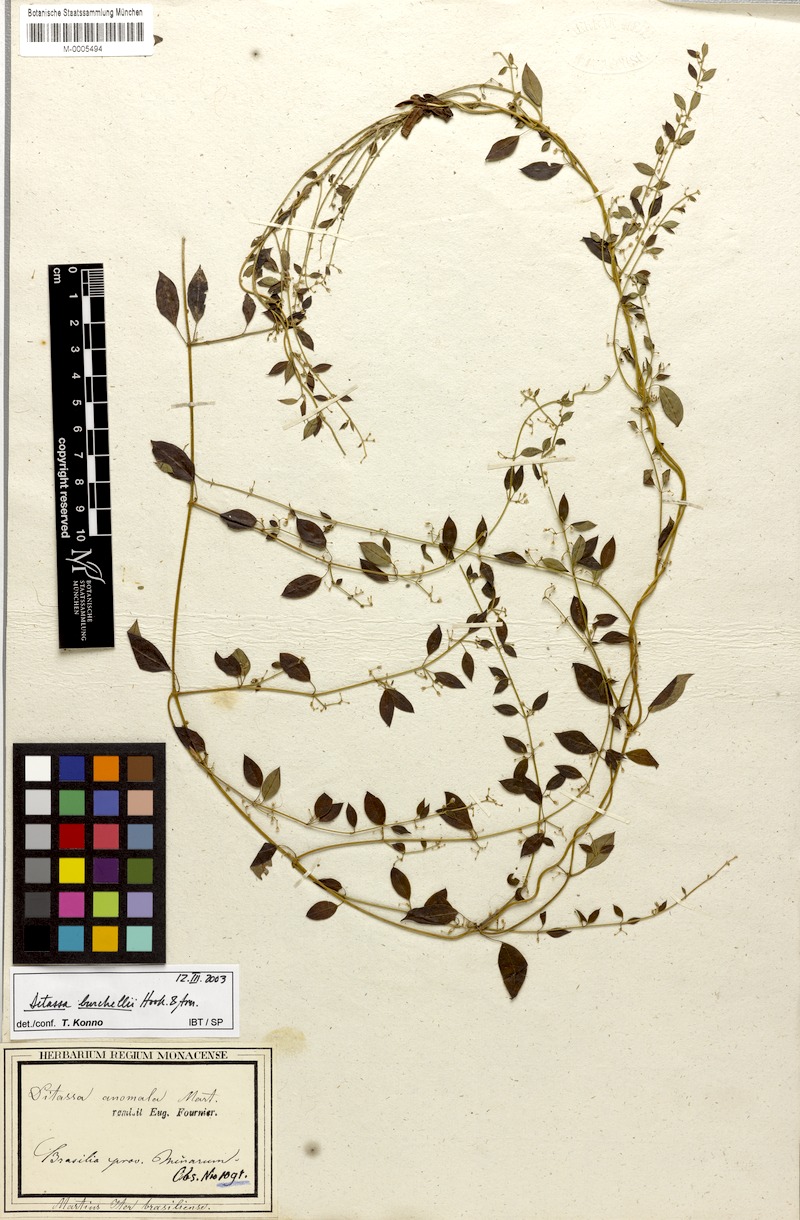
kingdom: Plantae
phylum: Tracheophyta
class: Magnoliopsida
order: Gentianales
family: Apocynaceae
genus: Metastelma
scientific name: Metastelma burchellii
